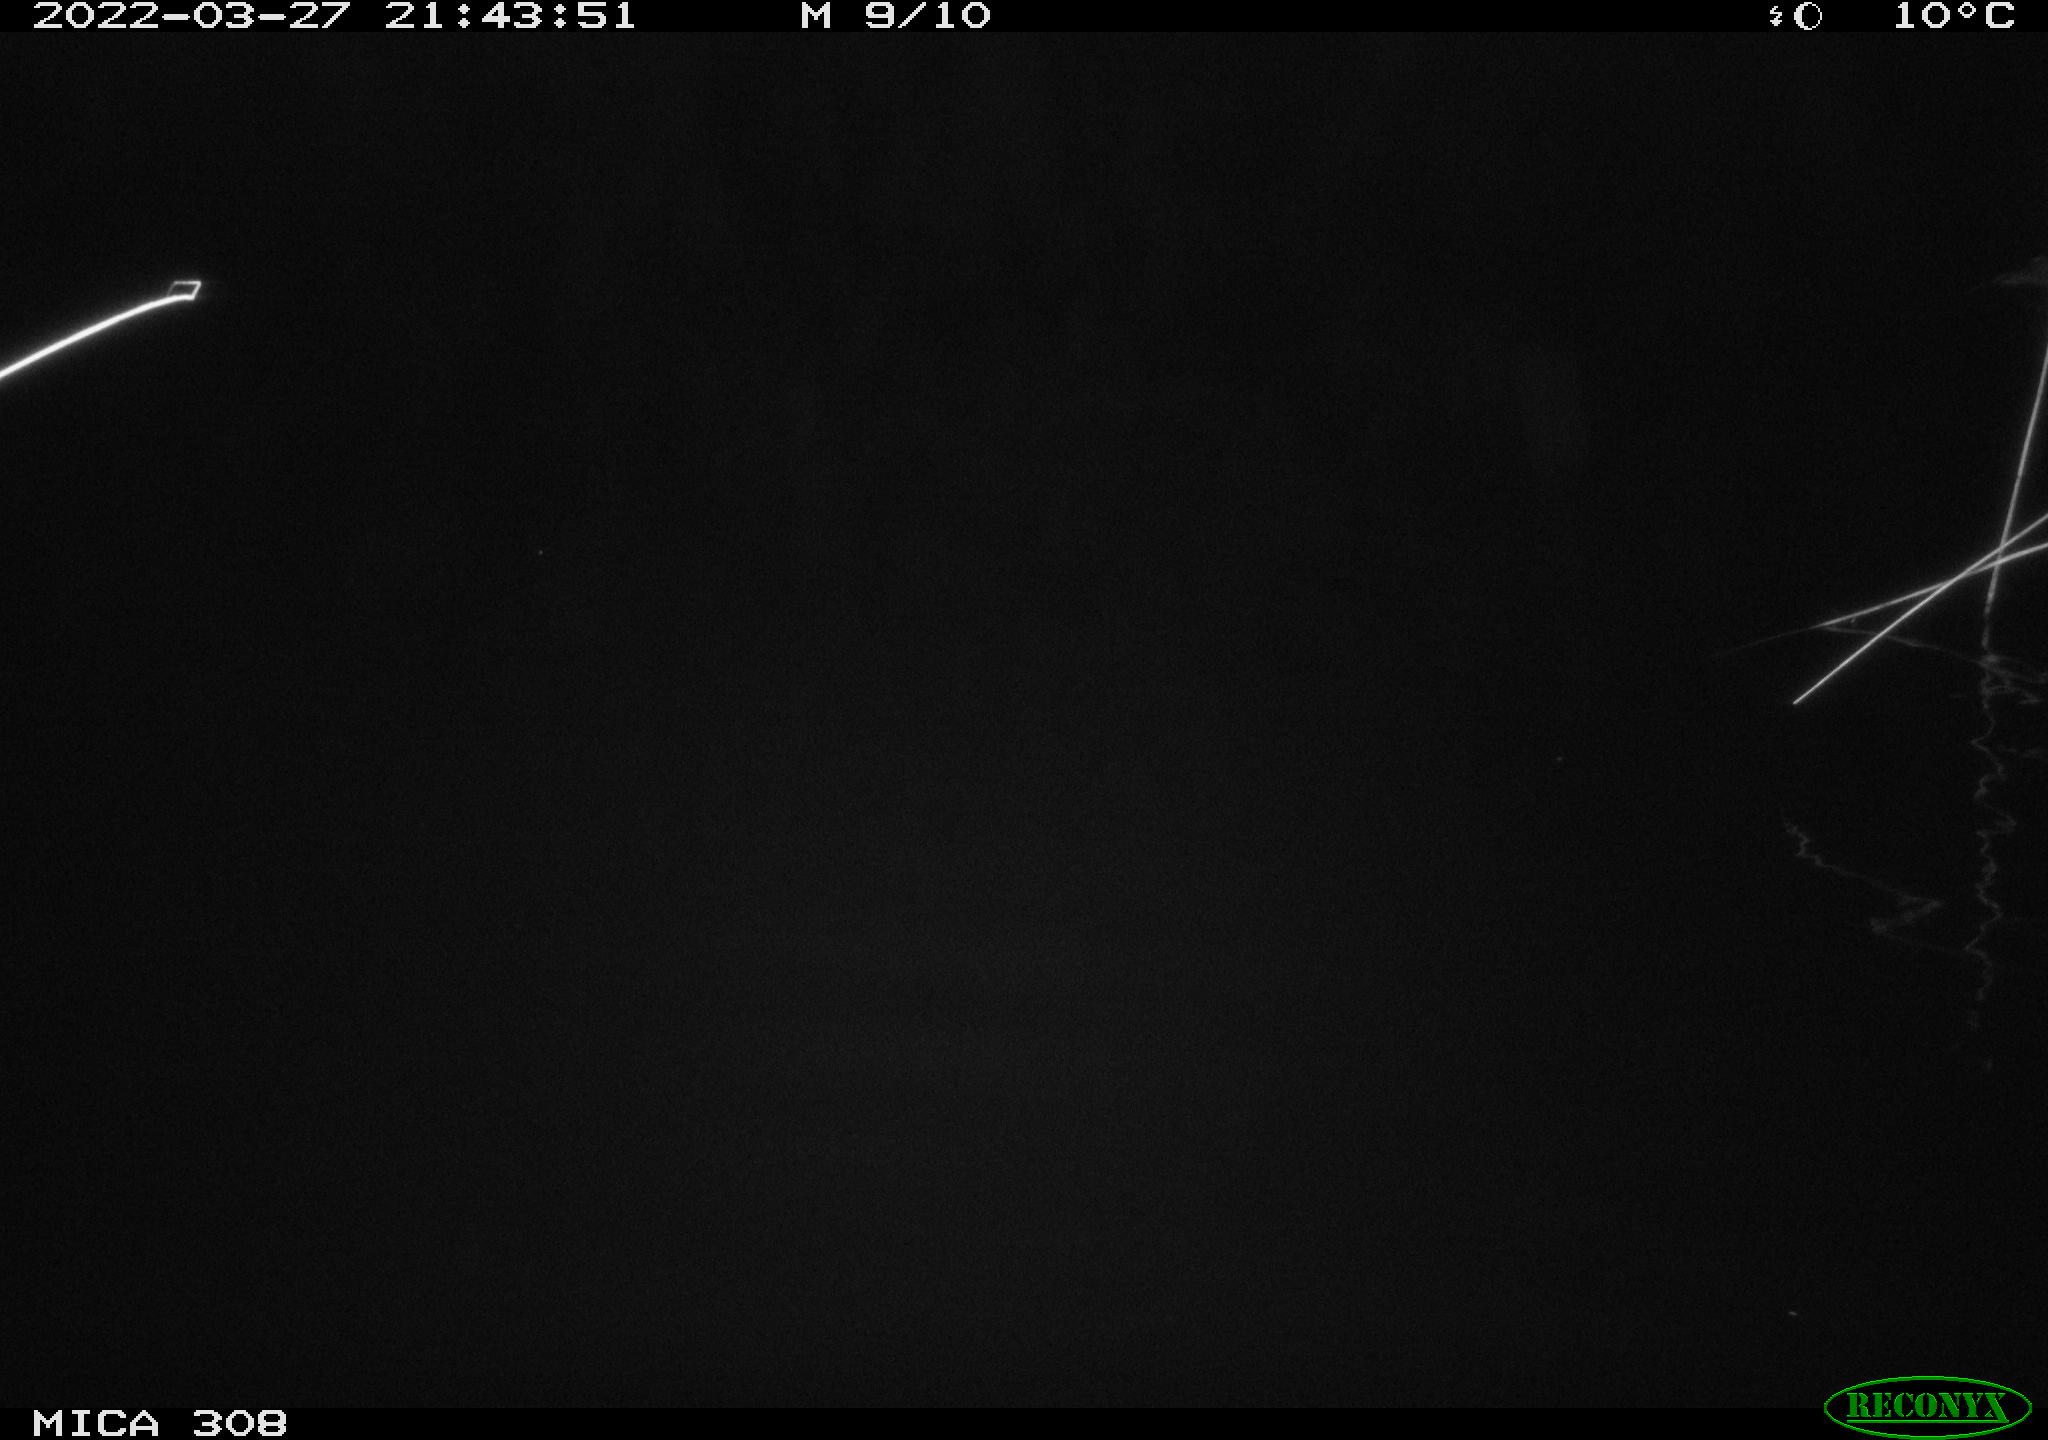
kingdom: Animalia
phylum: Chordata
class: Mammalia
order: Rodentia
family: Cricetidae
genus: Ondatra
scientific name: Ondatra zibethicus
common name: Muskrat
